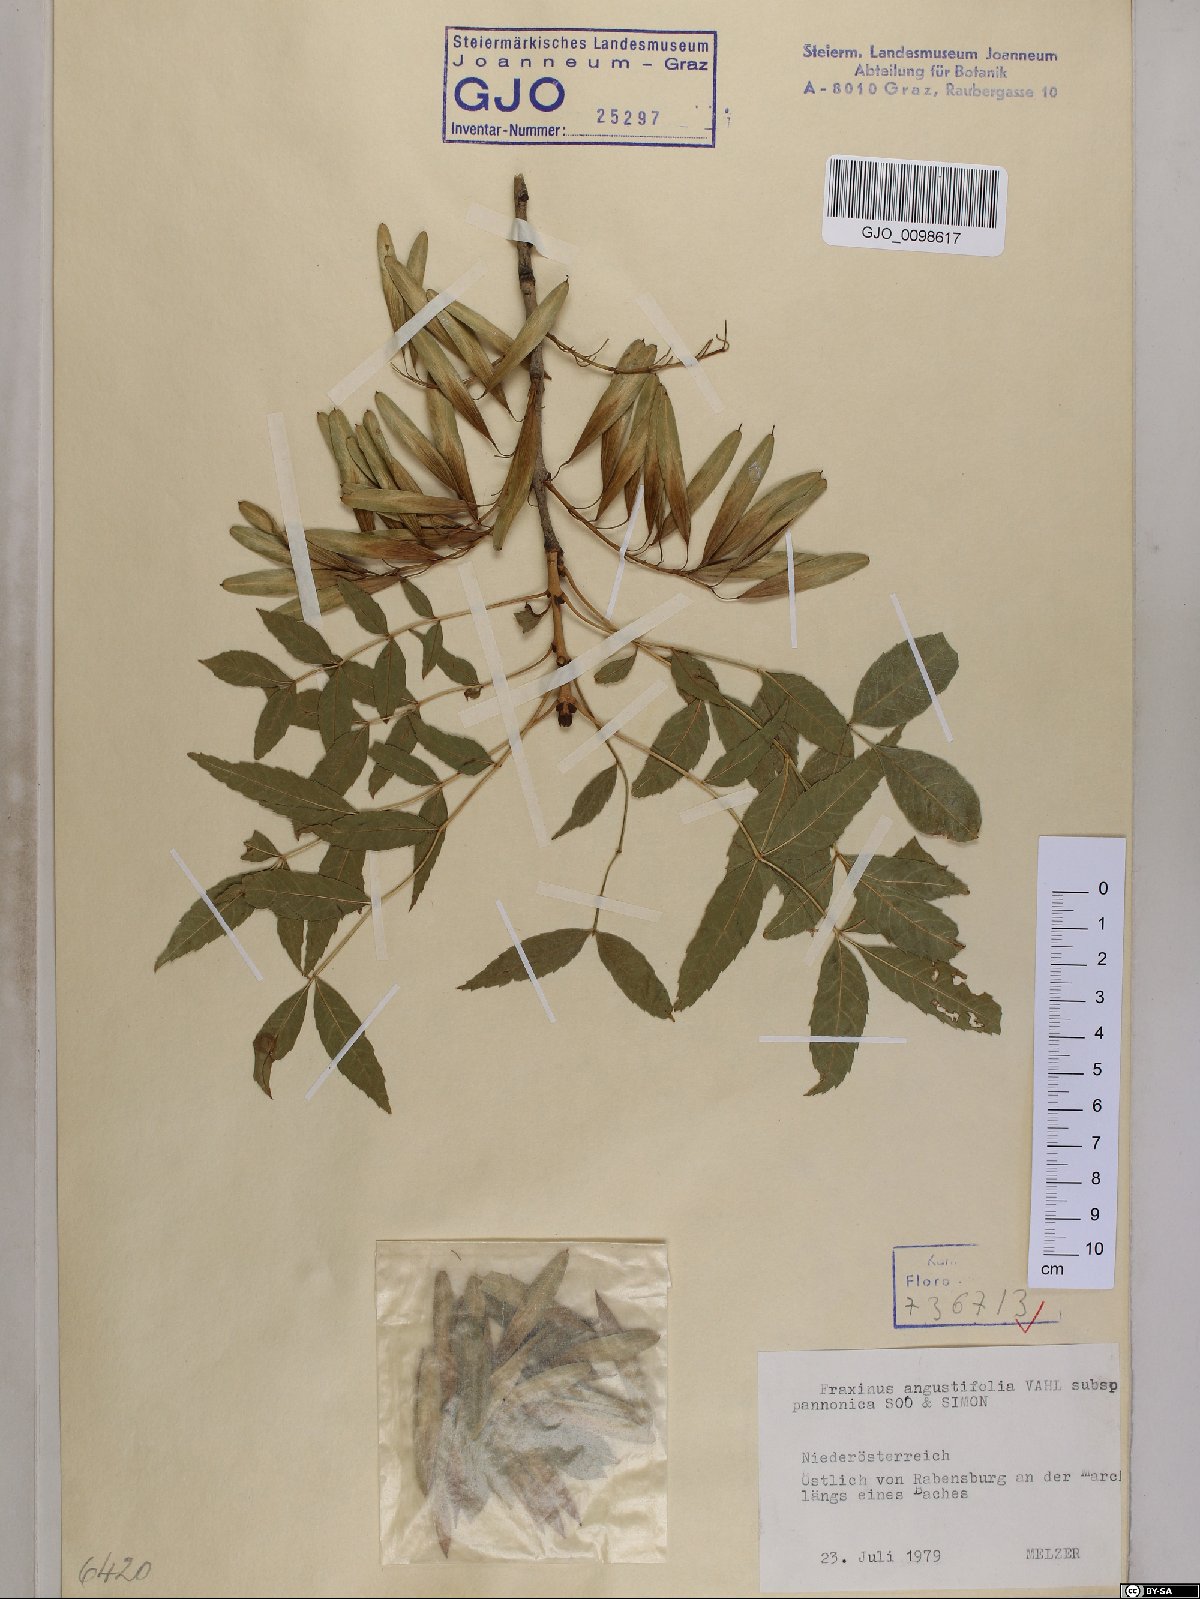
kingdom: Plantae
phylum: Tracheophyta
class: Magnoliopsida
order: Lamiales
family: Oleaceae
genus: Fraxinus
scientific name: Fraxinus angustifolia
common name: Narrow-leafed ash
